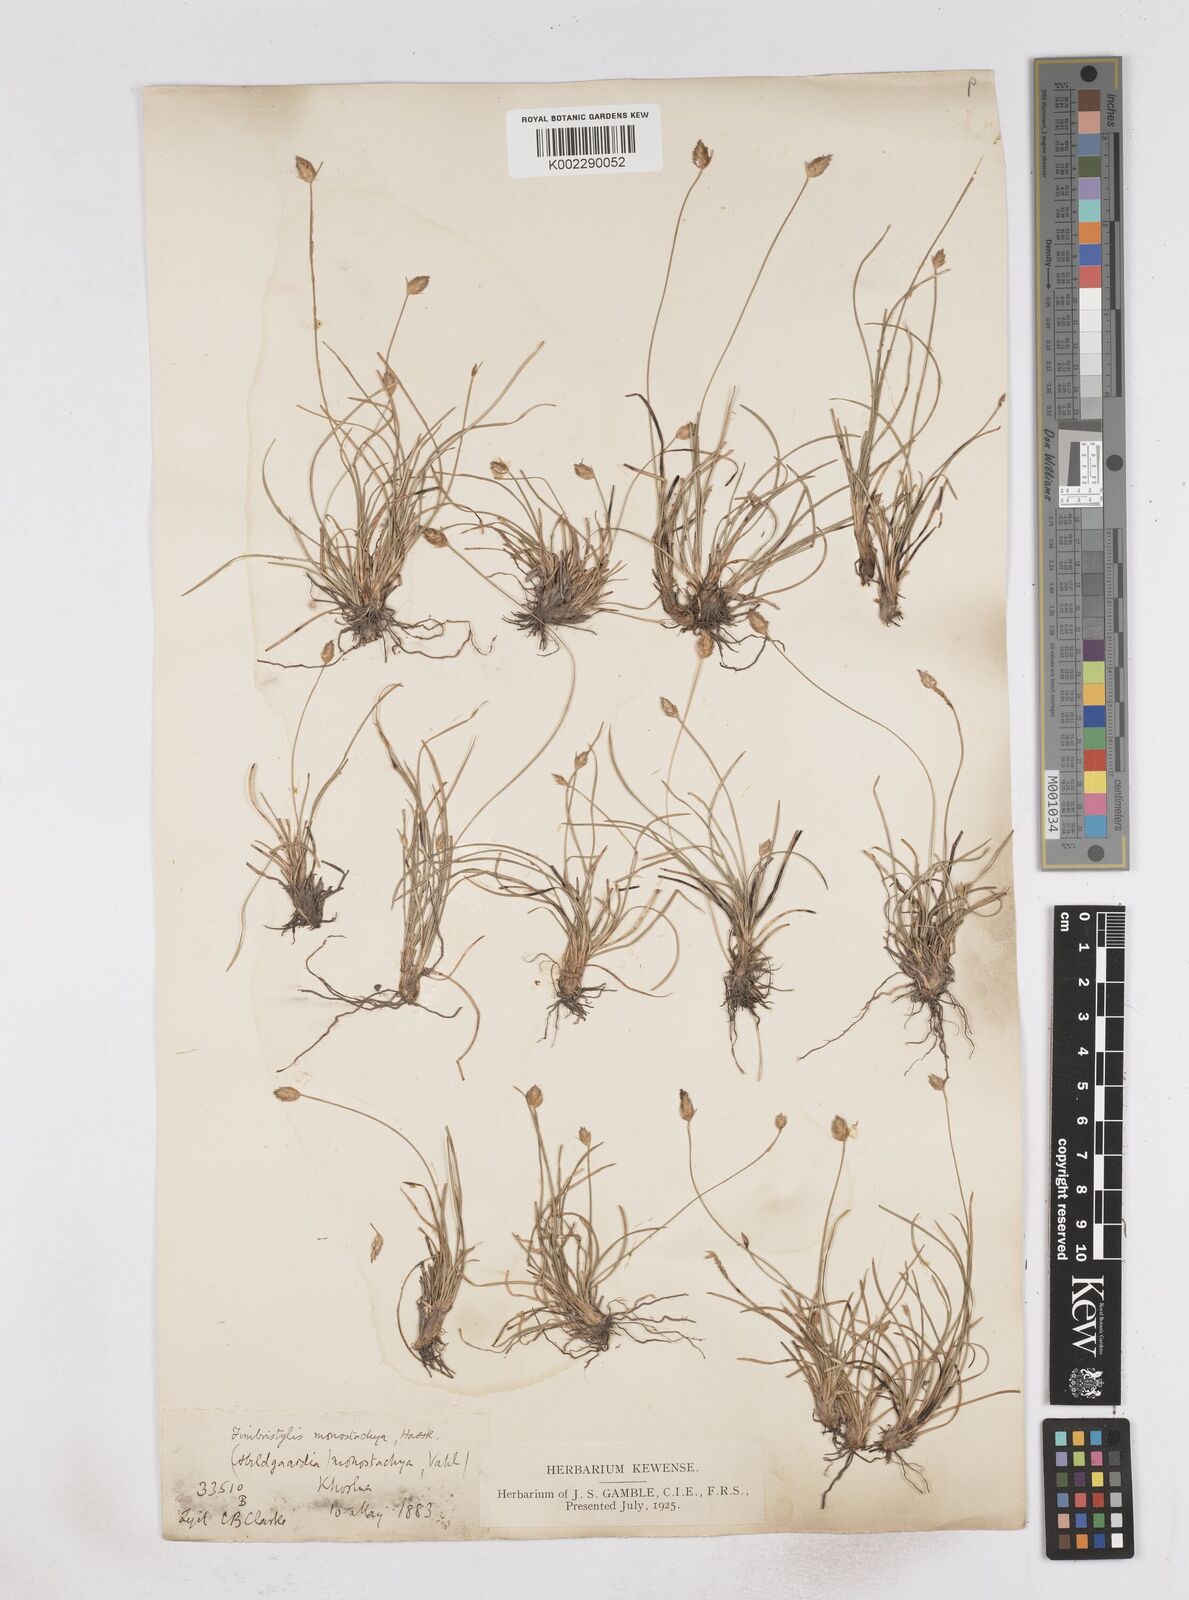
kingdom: Plantae
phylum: Tracheophyta
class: Liliopsida
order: Poales
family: Cyperaceae
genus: Abildgaardia
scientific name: Abildgaardia ovata
